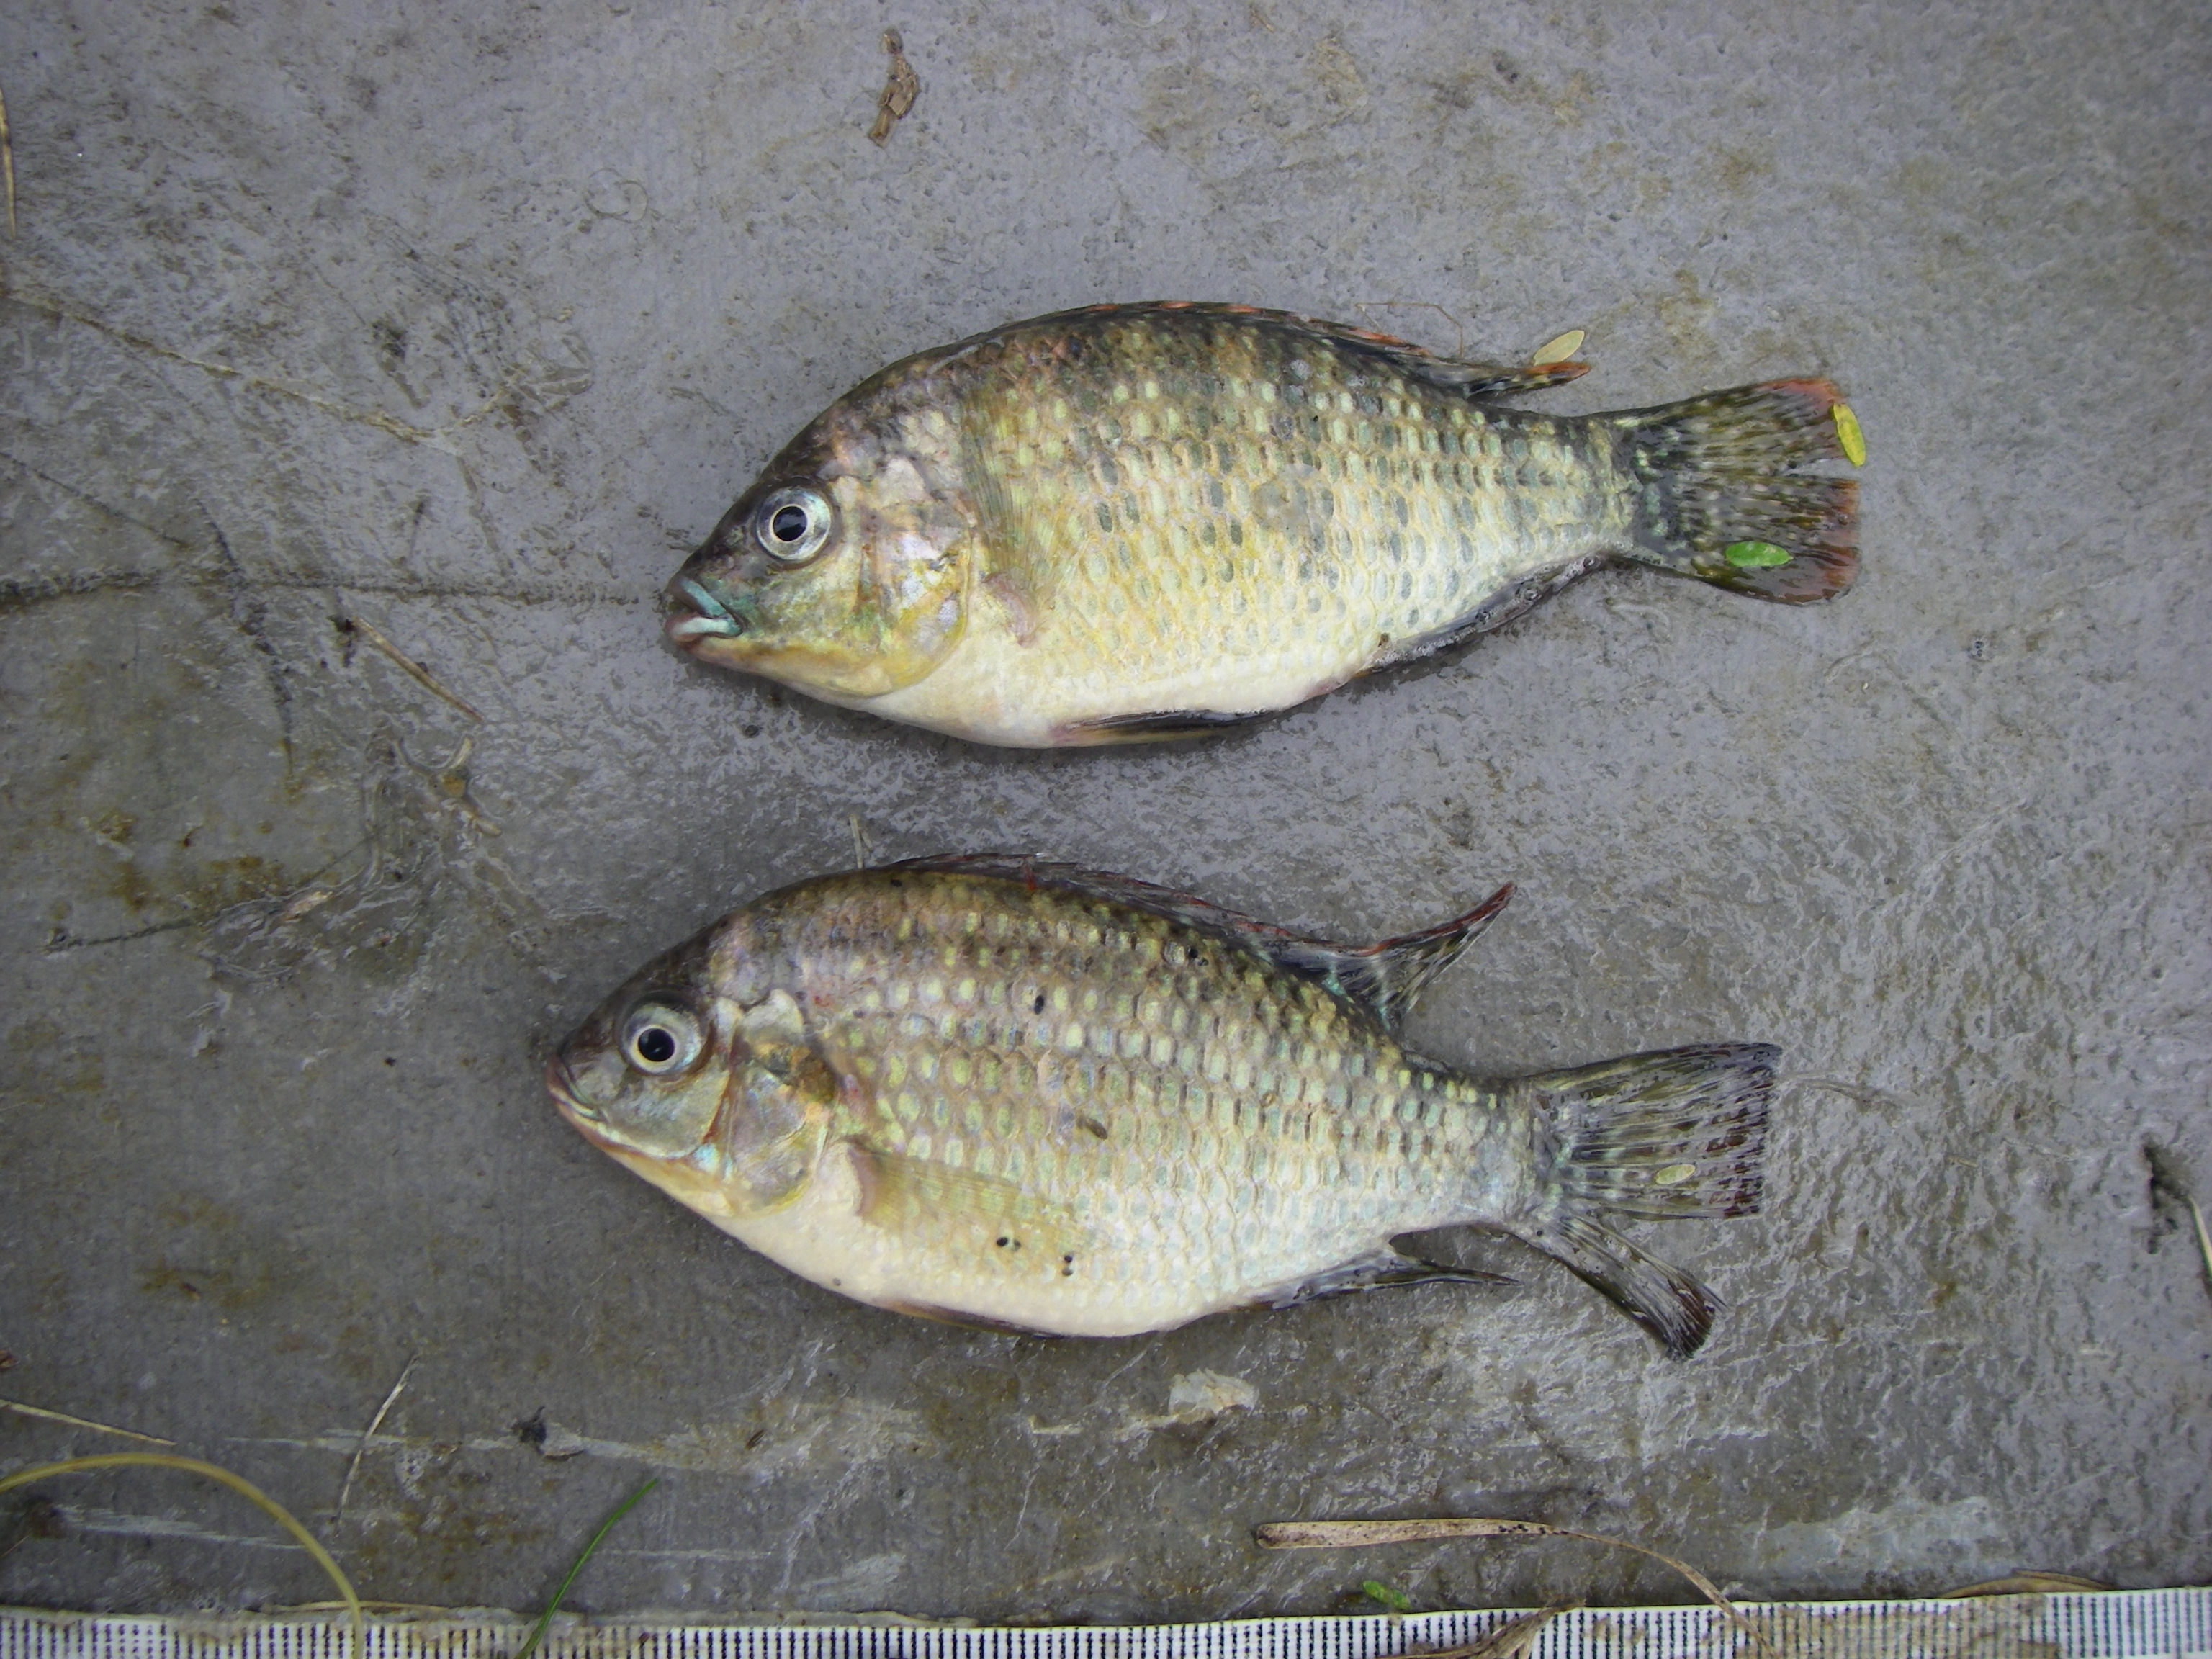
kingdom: Animalia
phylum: Chordata
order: Perciformes
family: Cichlidae
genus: Tilapia
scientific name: Tilapia sparrmanii
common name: Banded tilapia
